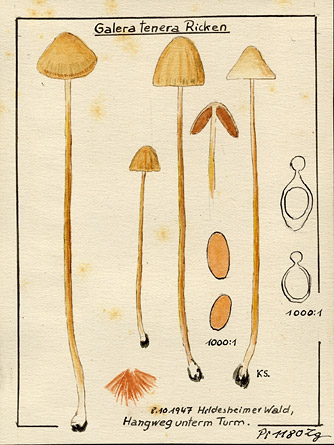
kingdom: Fungi
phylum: Basidiomycota
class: Agaricomycetes
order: Agaricales
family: Bolbitiaceae
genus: Conocybe
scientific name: Conocybe tenera
